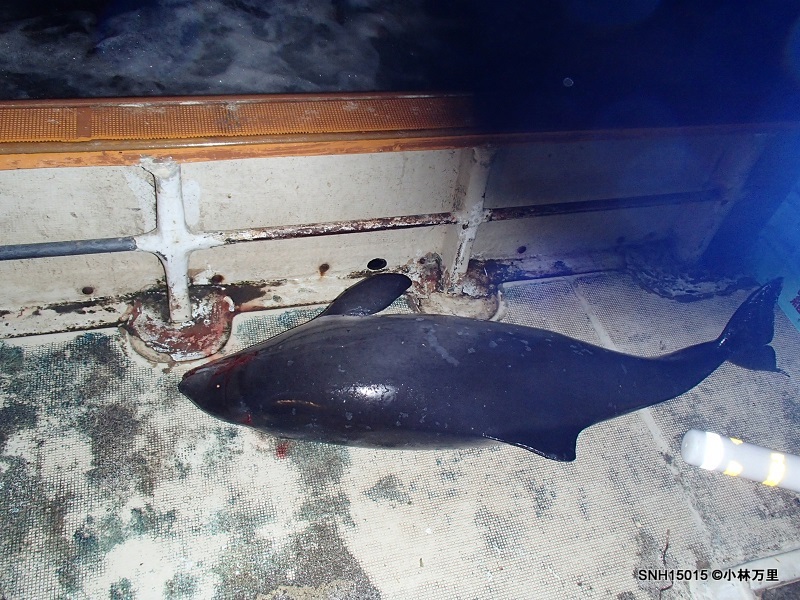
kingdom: Animalia
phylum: Chordata
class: Mammalia
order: Cetacea
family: Phocoenidae
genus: Phocoena
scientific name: Phocoena phocoena
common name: Harbour porpoise
